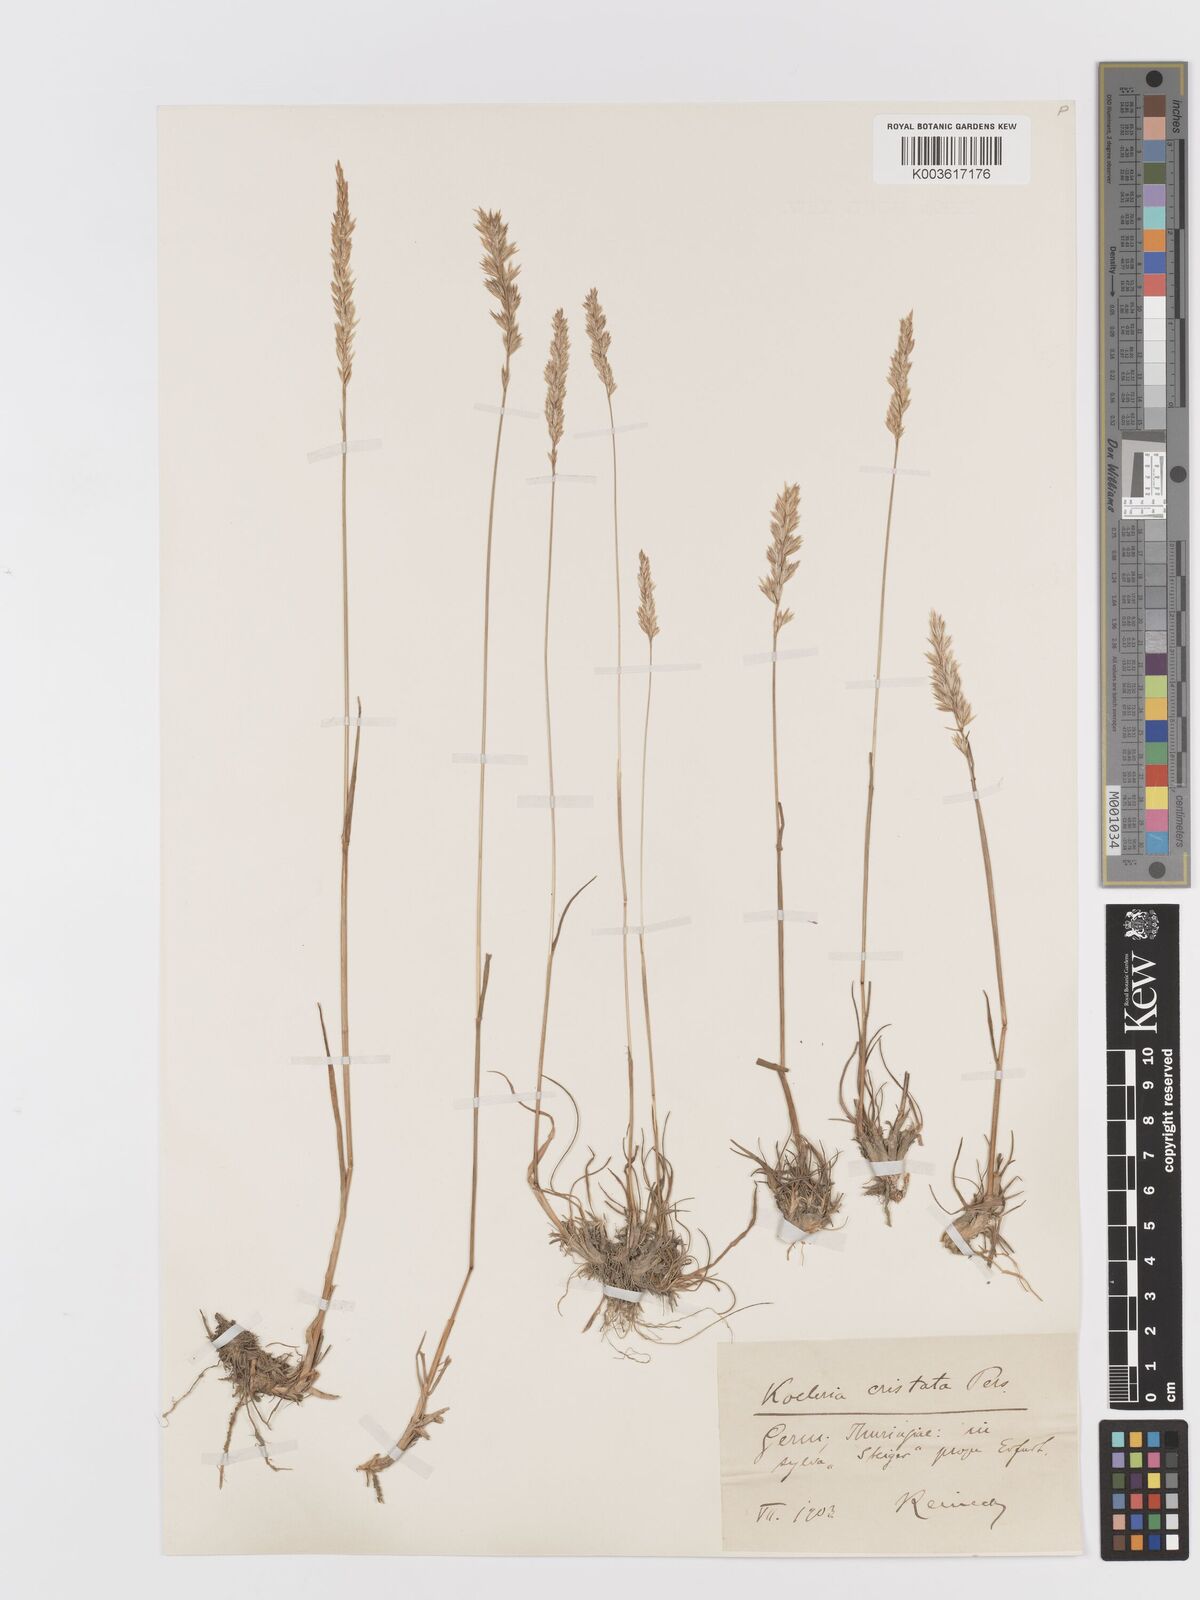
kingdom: Plantae
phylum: Tracheophyta
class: Liliopsida
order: Poales
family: Poaceae
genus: Koeleria
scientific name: Koeleria macrantha
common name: Crested hair-grass
